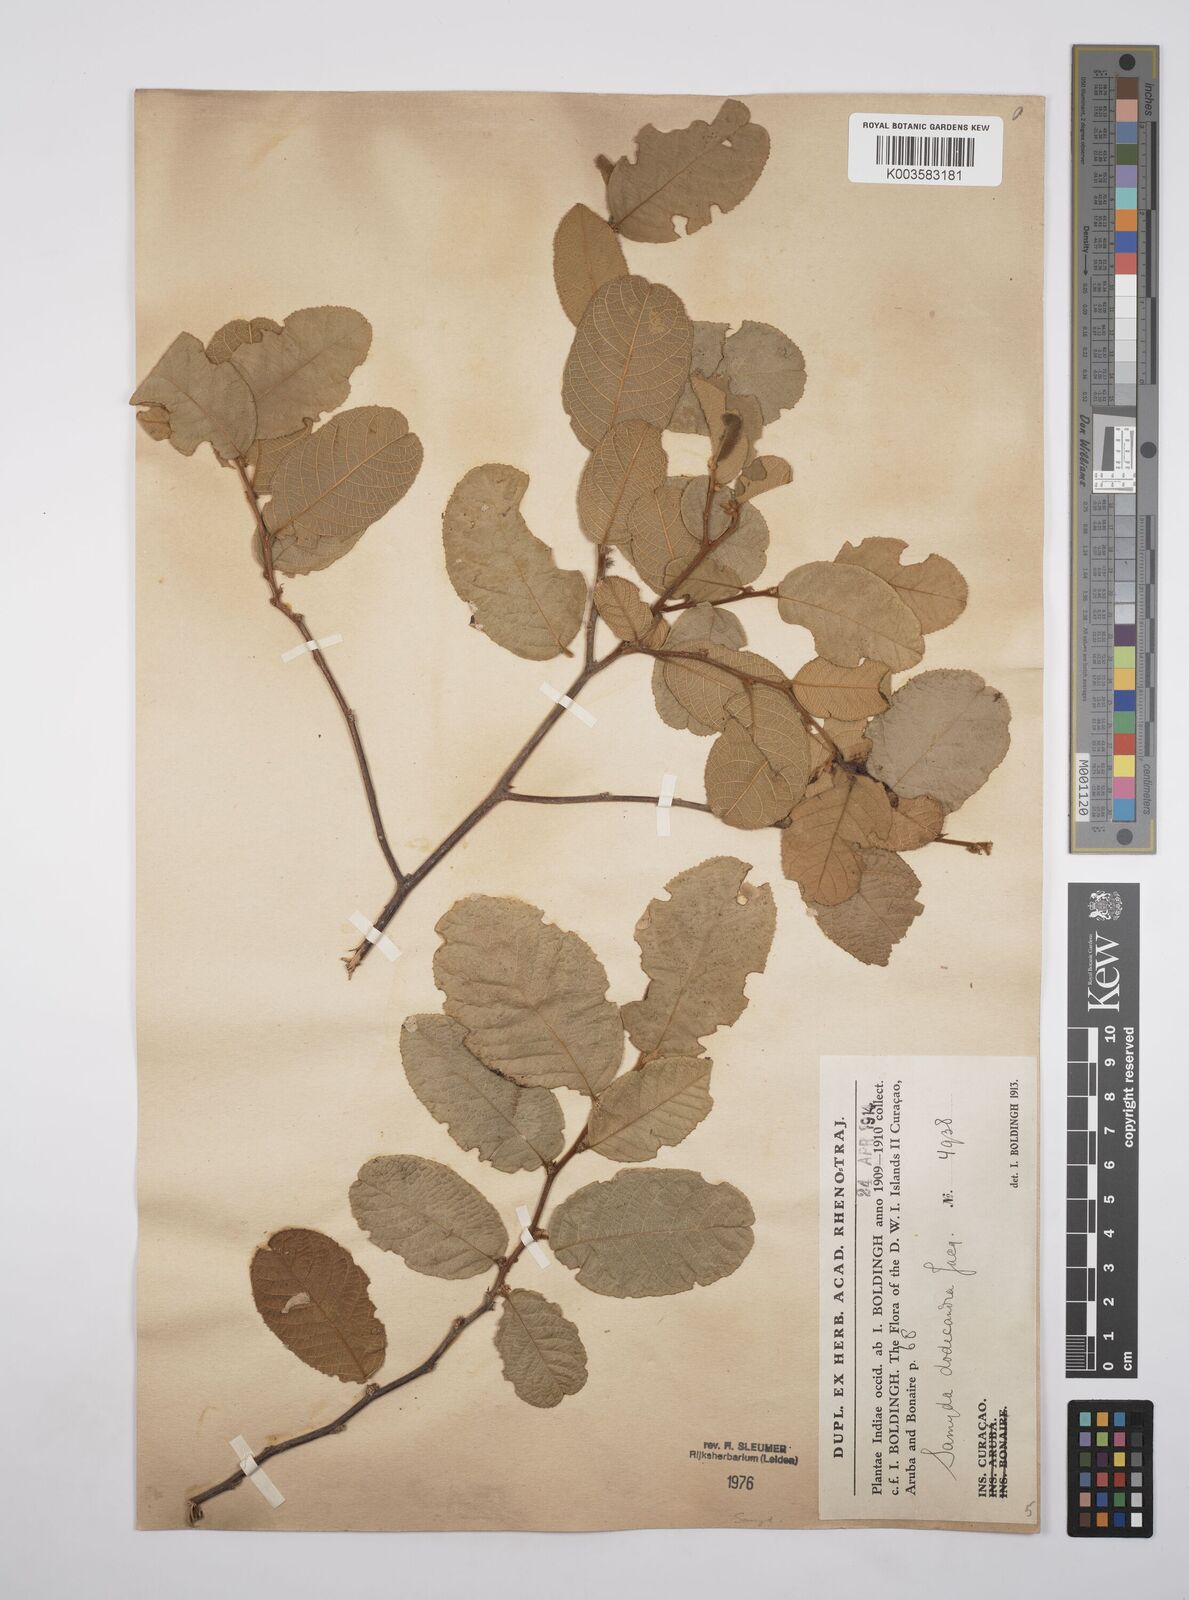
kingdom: Plantae
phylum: Tracheophyta
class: Magnoliopsida
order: Malpighiales
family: Salicaceae
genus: Casearia
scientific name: Casearia dodecandra
